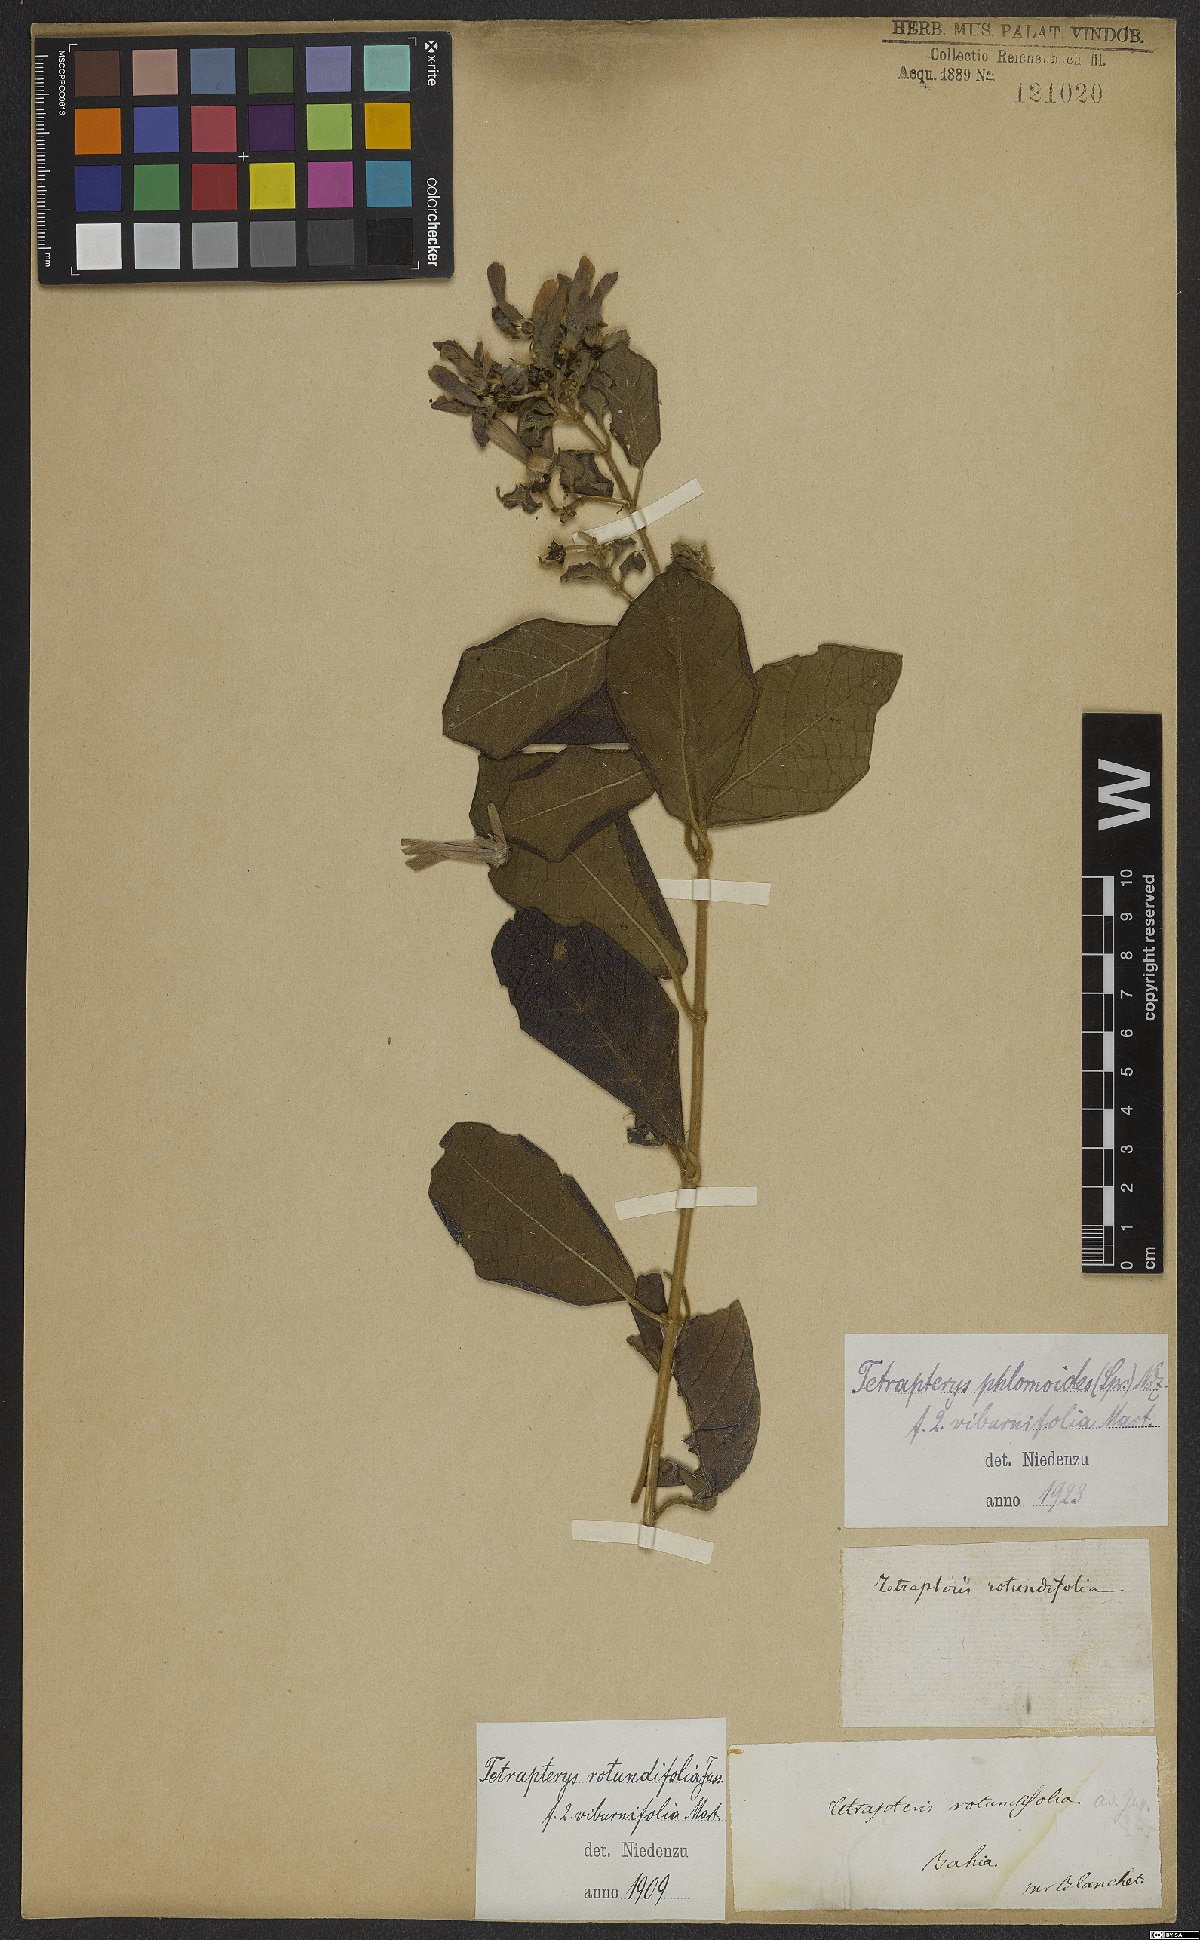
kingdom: Plantae
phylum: Tracheophyta
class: Magnoliopsida
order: Malpighiales
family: Malpighiaceae
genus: Tetrapterys
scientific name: Tetrapterys phlomoides
